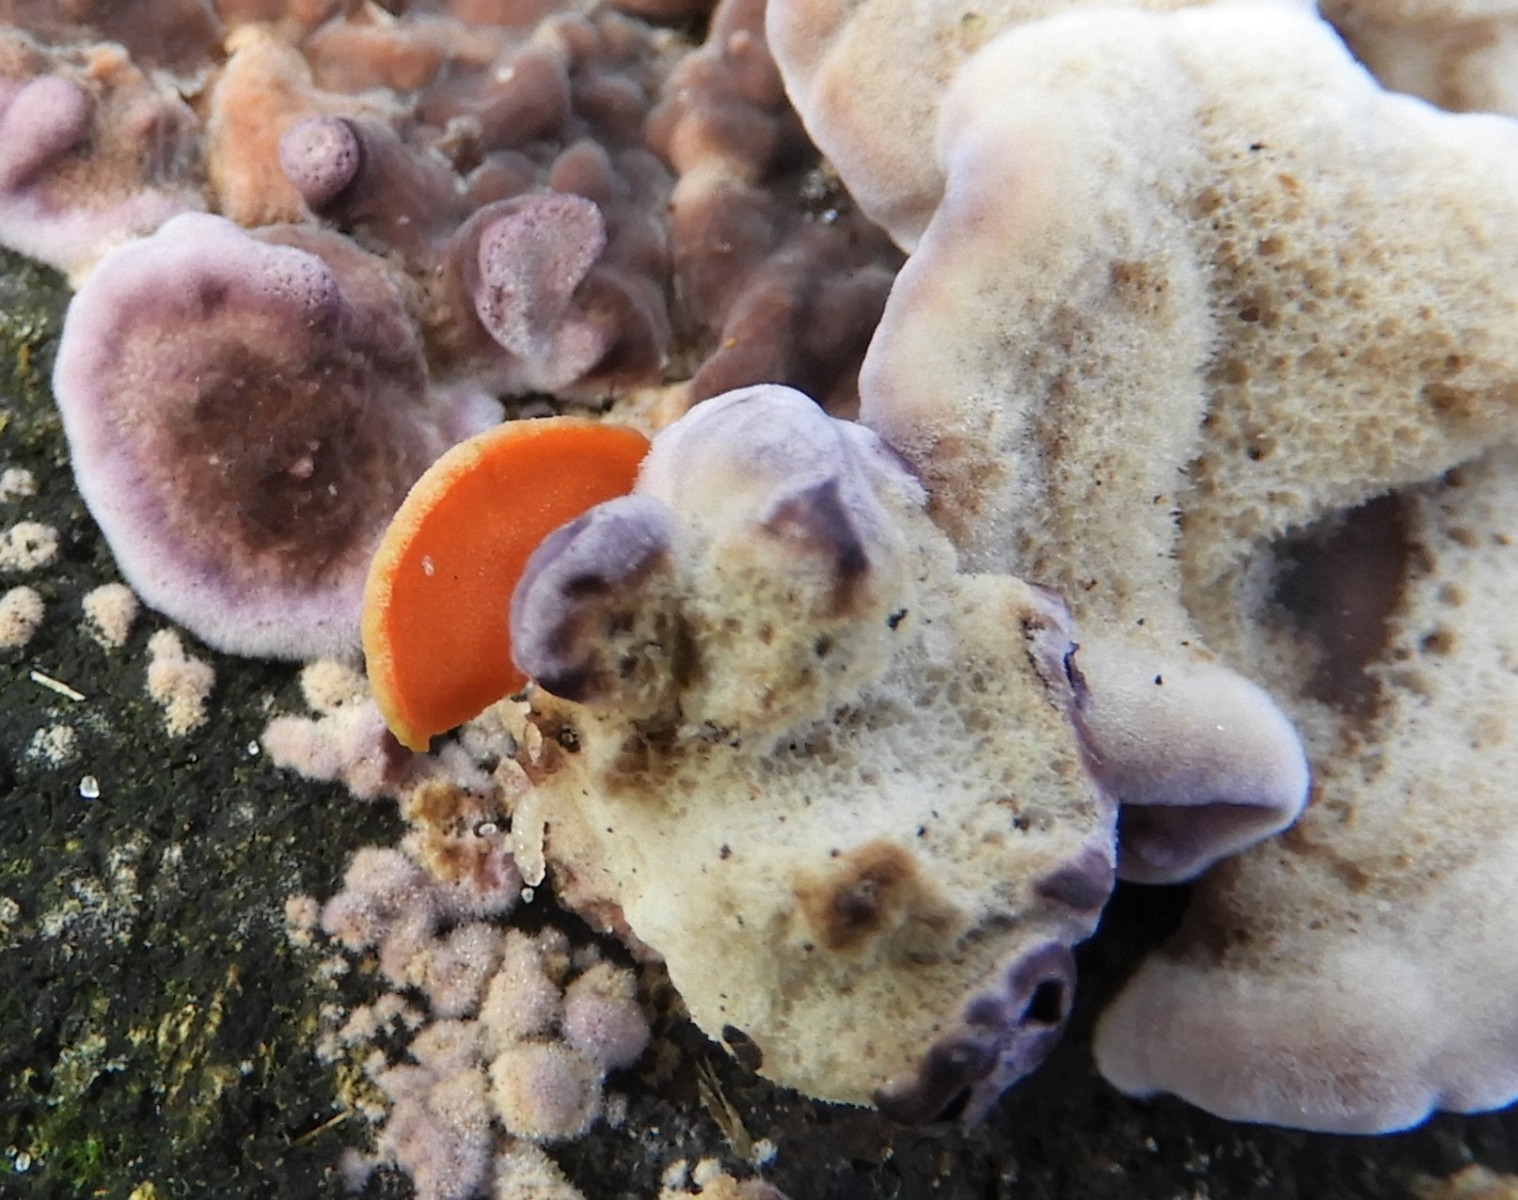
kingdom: Fungi
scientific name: Fungi
